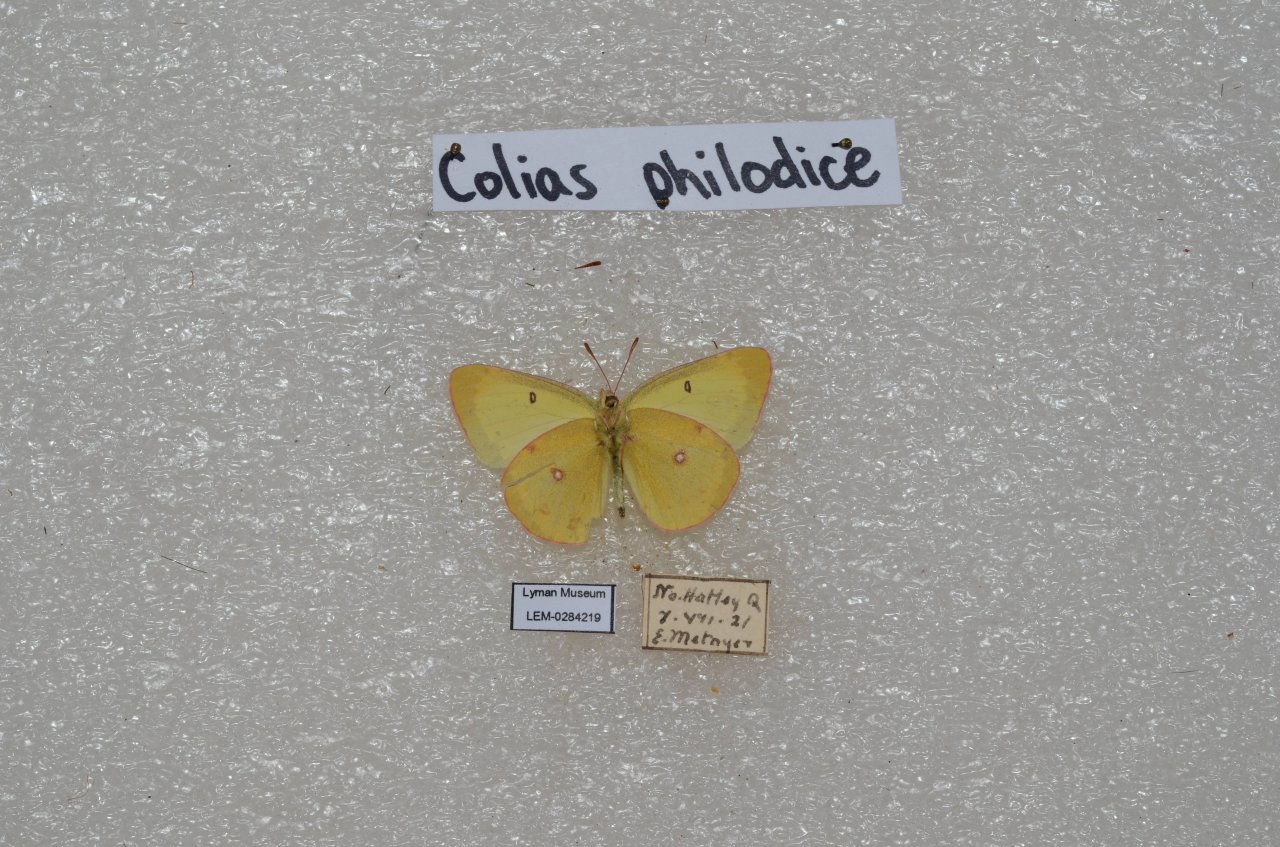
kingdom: Animalia
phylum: Arthropoda
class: Insecta
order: Lepidoptera
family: Pieridae
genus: Colias
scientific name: Colias philodice
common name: Clouded Sulphur
